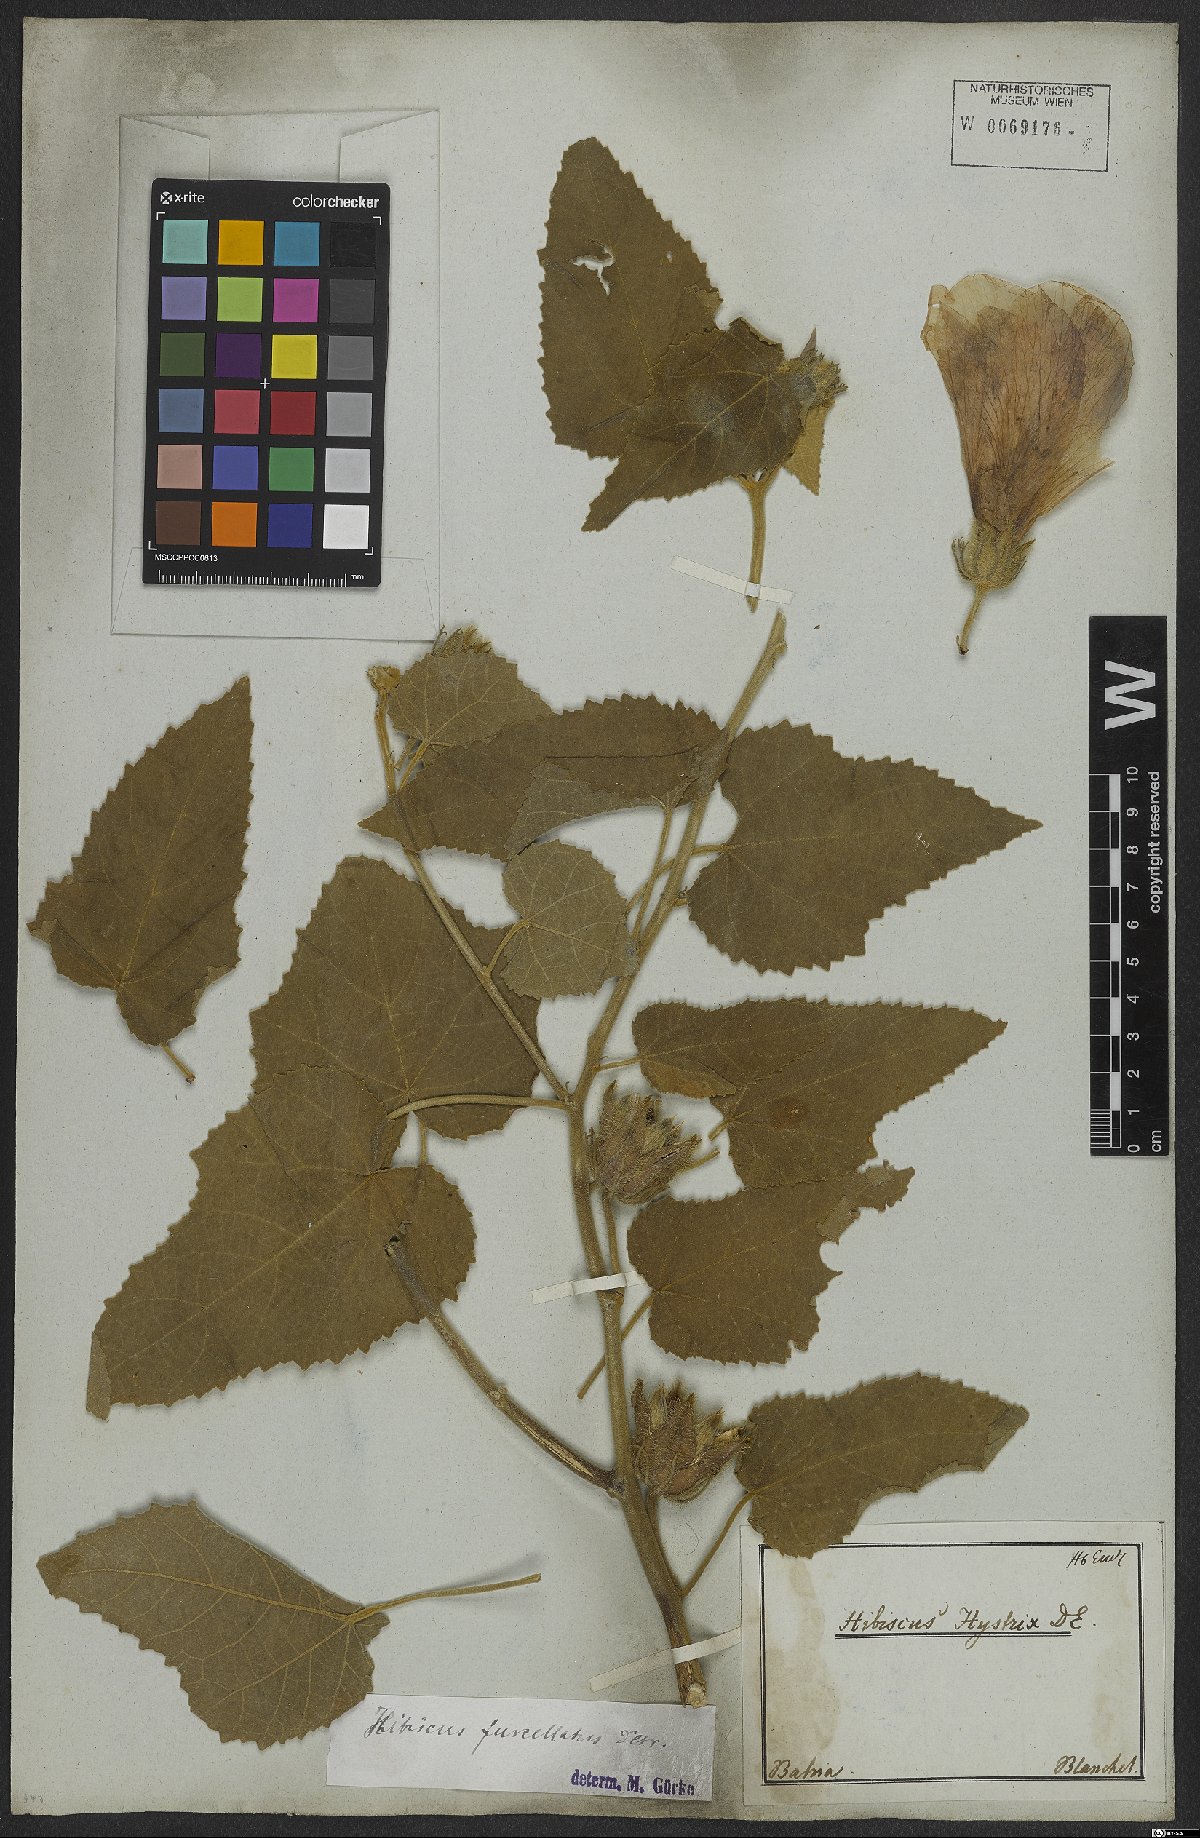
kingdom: Plantae
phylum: Tracheophyta
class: Magnoliopsida
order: Malvales
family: Malvaceae
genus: Hibiscus
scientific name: Hibiscus furcellatus
